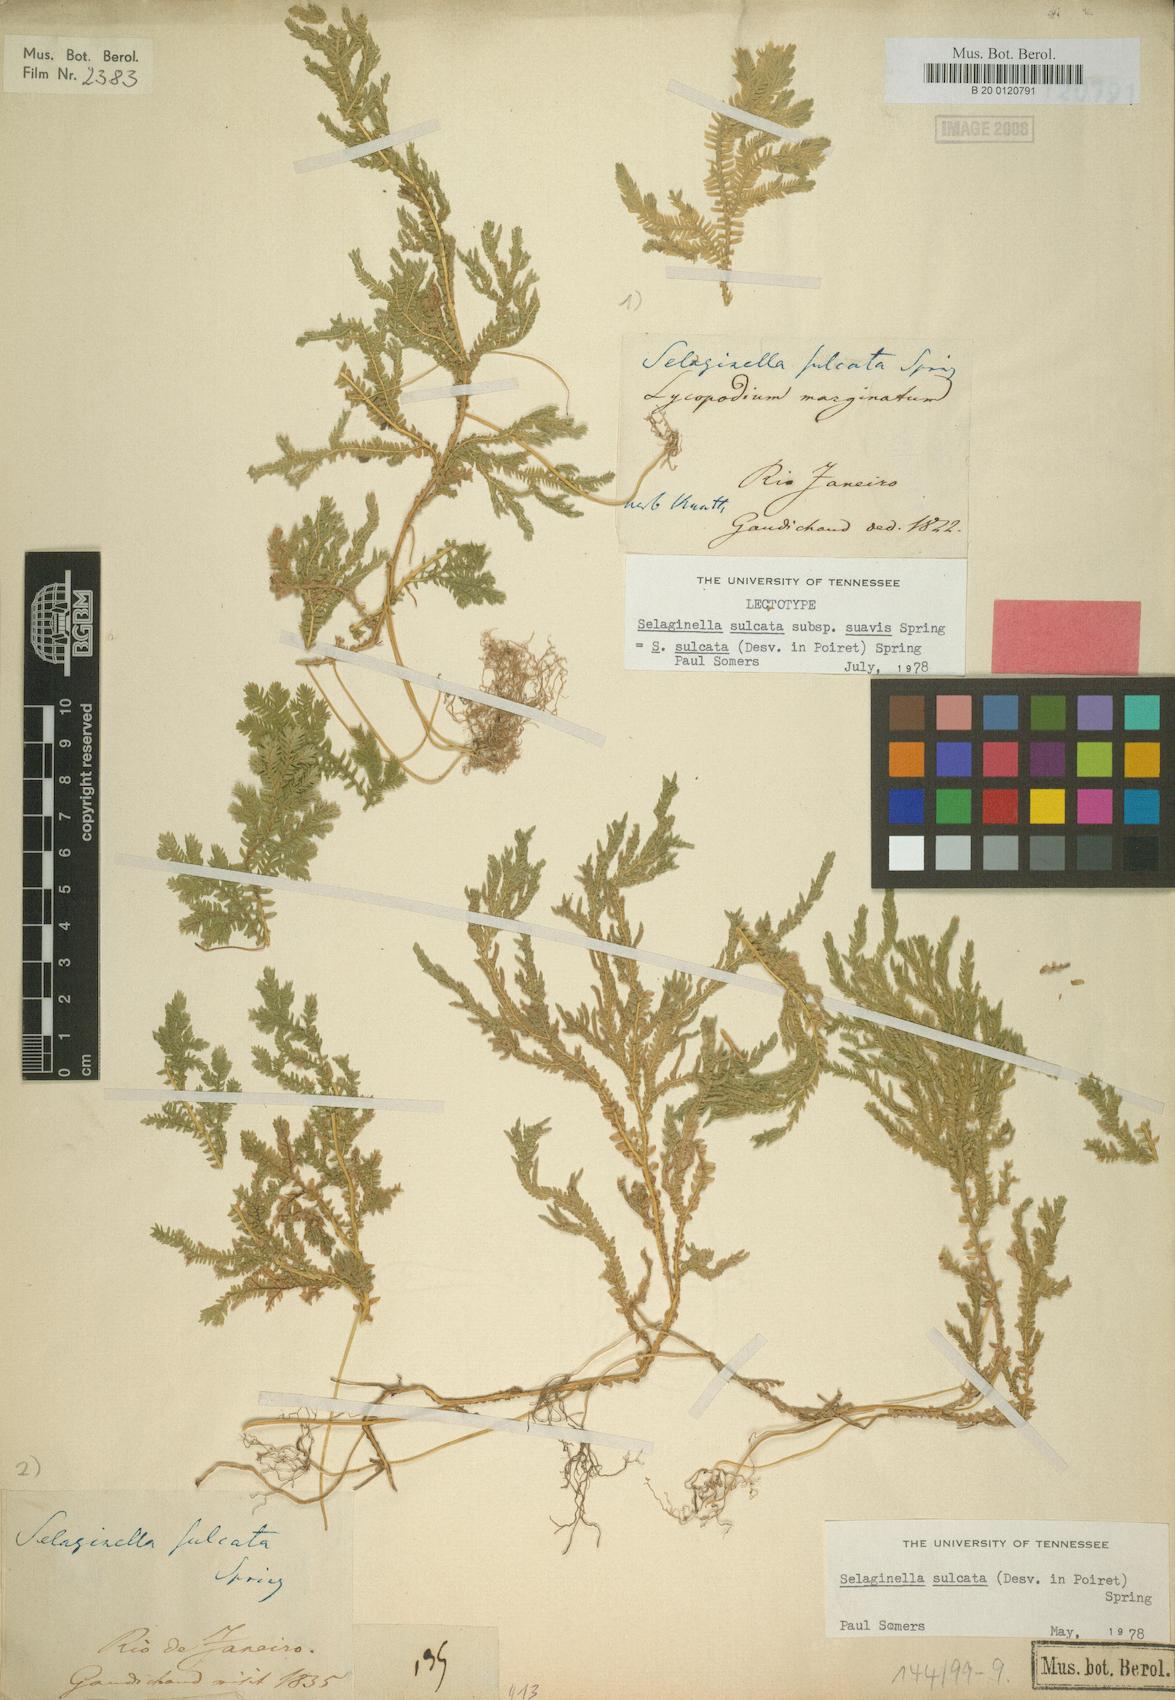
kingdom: Plantae
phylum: Tracheophyta
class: Lycopodiopsida
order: Selaginellales
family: Selaginellaceae
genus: Selaginella
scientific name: Selaginella sulcata
